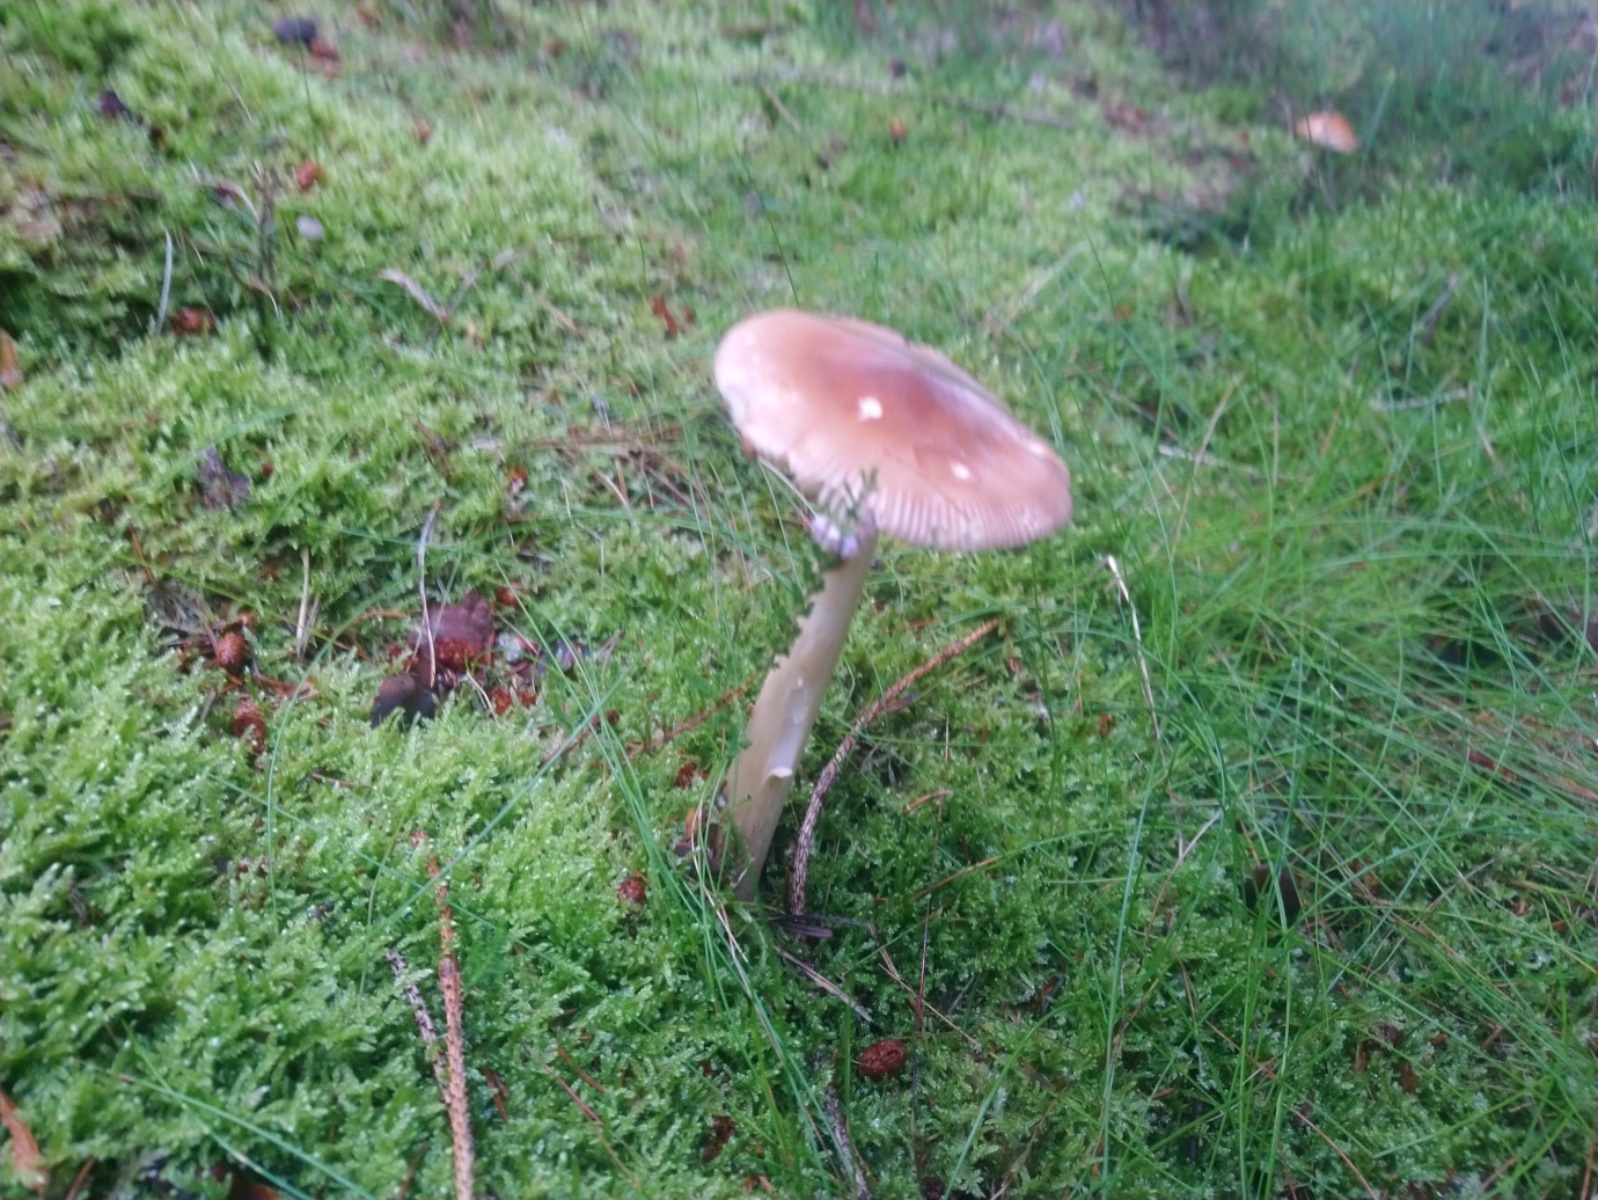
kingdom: Fungi
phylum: Basidiomycota
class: Agaricomycetes
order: Agaricales
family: Amanitaceae
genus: Amanita
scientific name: Amanita fulva
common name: brun kam-fluesvamp
